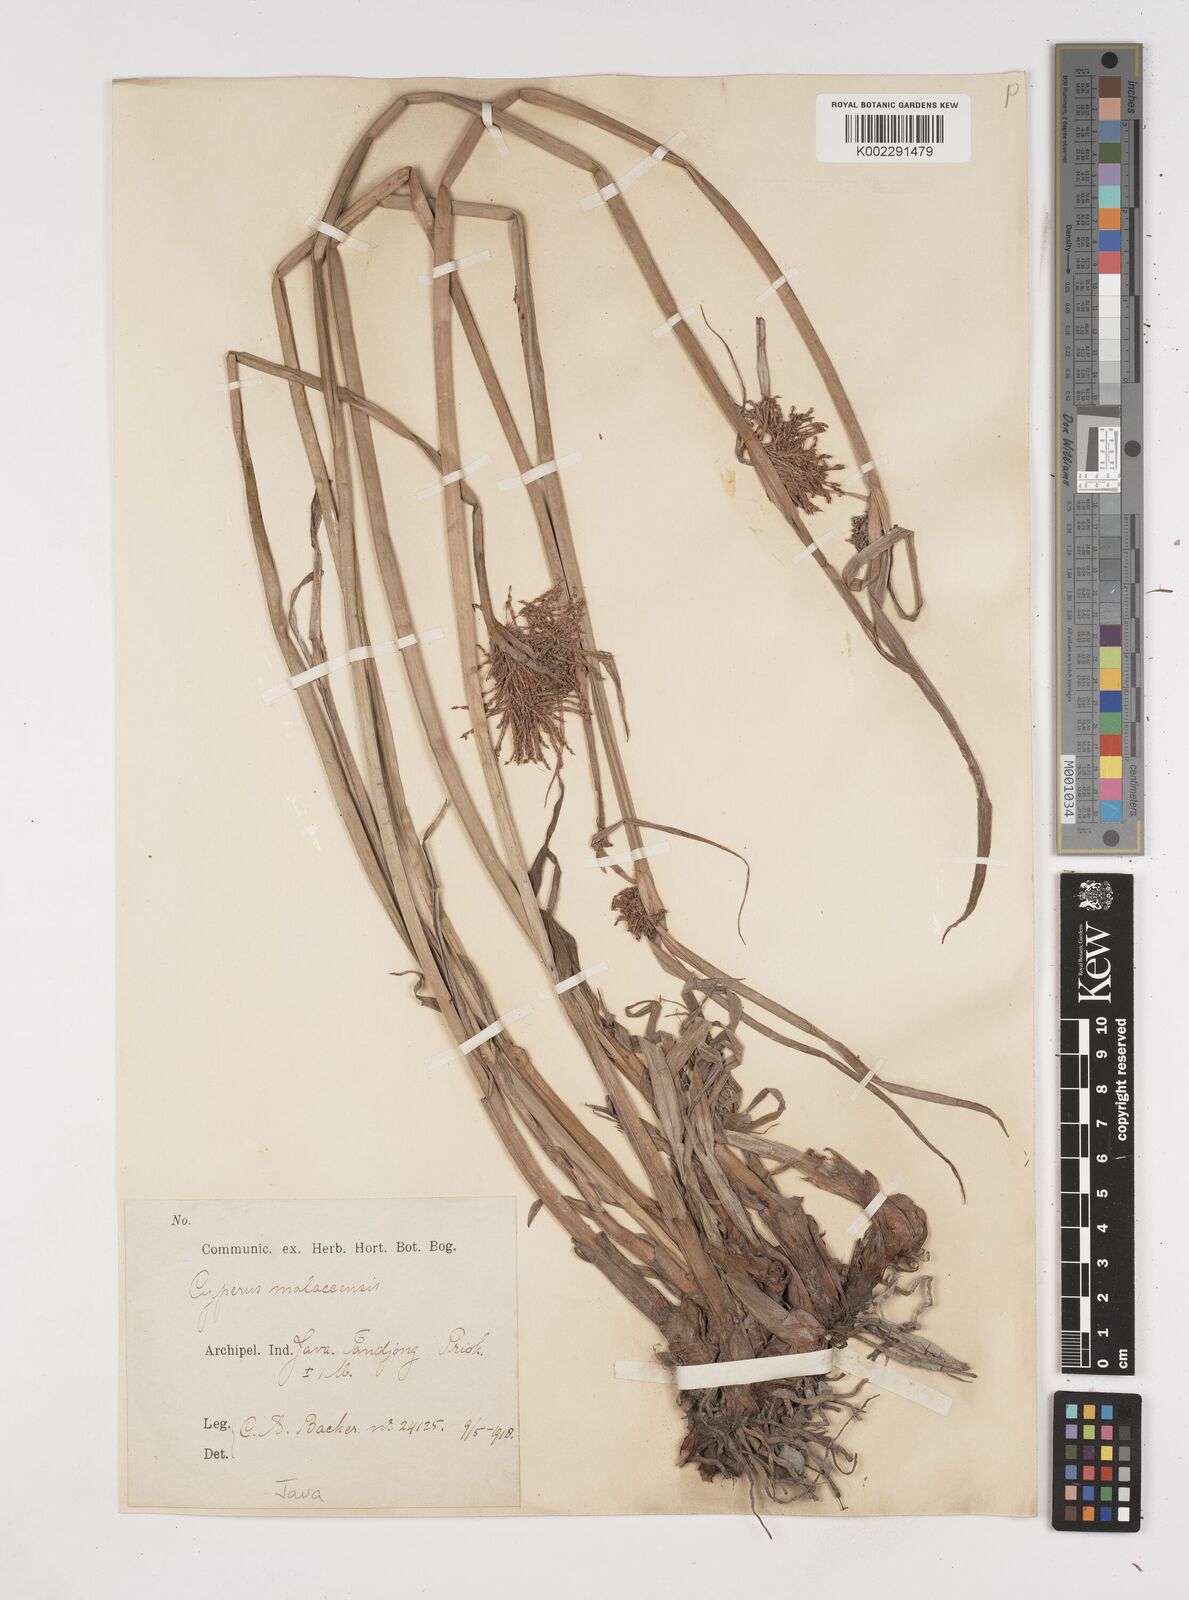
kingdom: Plantae
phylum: Tracheophyta
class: Liliopsida
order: Poales
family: Cyperaceae
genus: Cyperus
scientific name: Cyperus malaccensis
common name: Shichito matgrass
